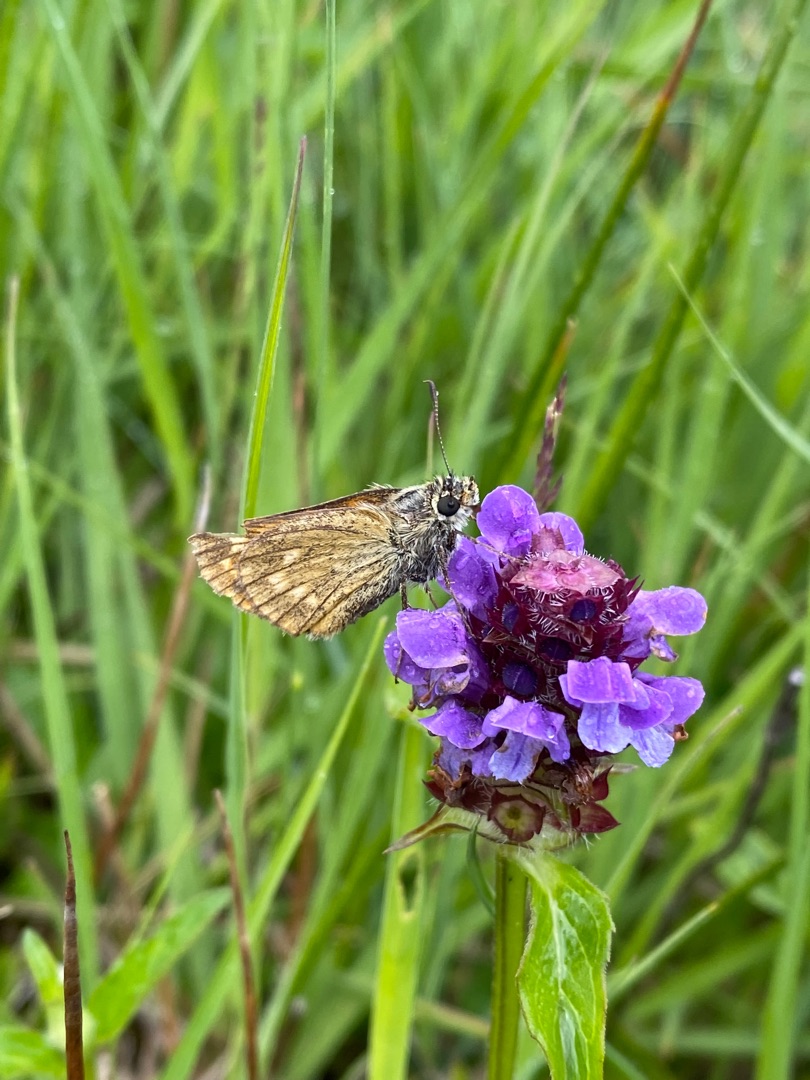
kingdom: Animalia
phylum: Arthropoda
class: Insecta
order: Lepidoptera
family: Hesperiidae
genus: Ochlodes
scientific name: Ochlodes venata
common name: Stor bredpande
